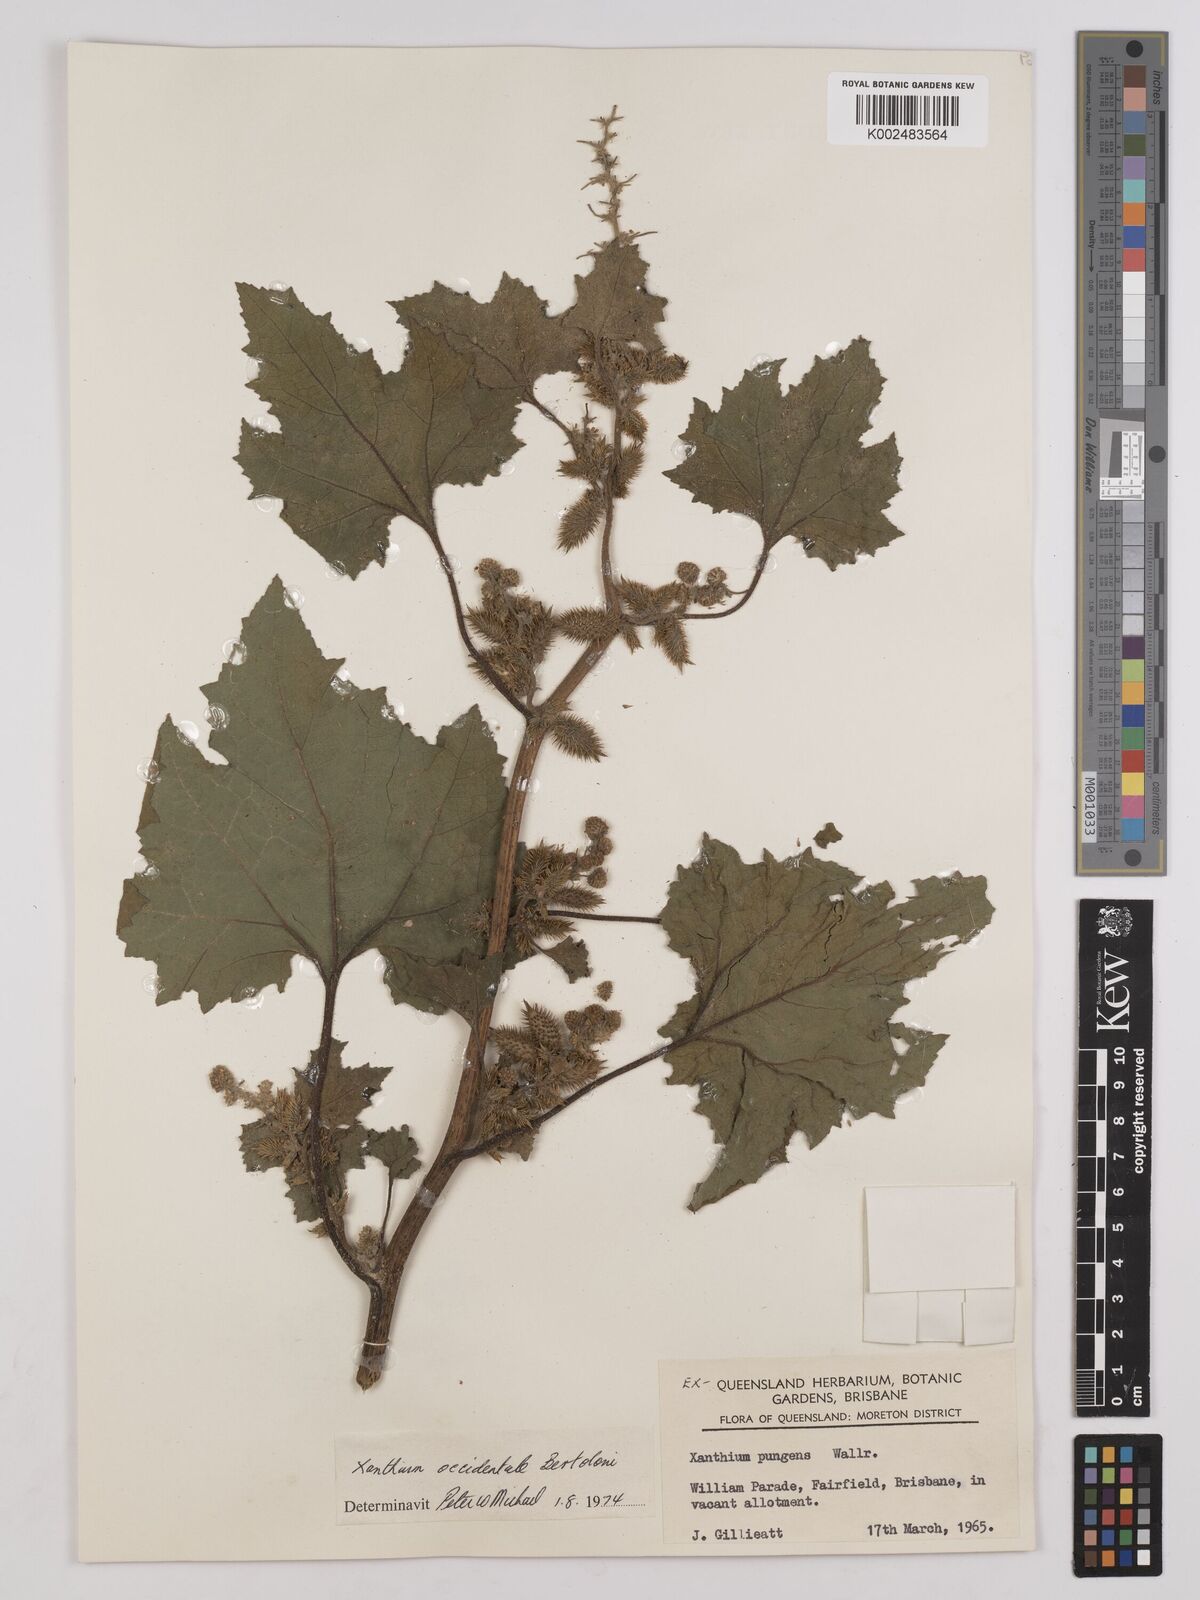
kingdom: Plantae
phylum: Tracheophyta
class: Magnoliopsida
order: Asterales
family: Asteraceae
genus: Xanthium
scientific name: Xanthium occidentale
